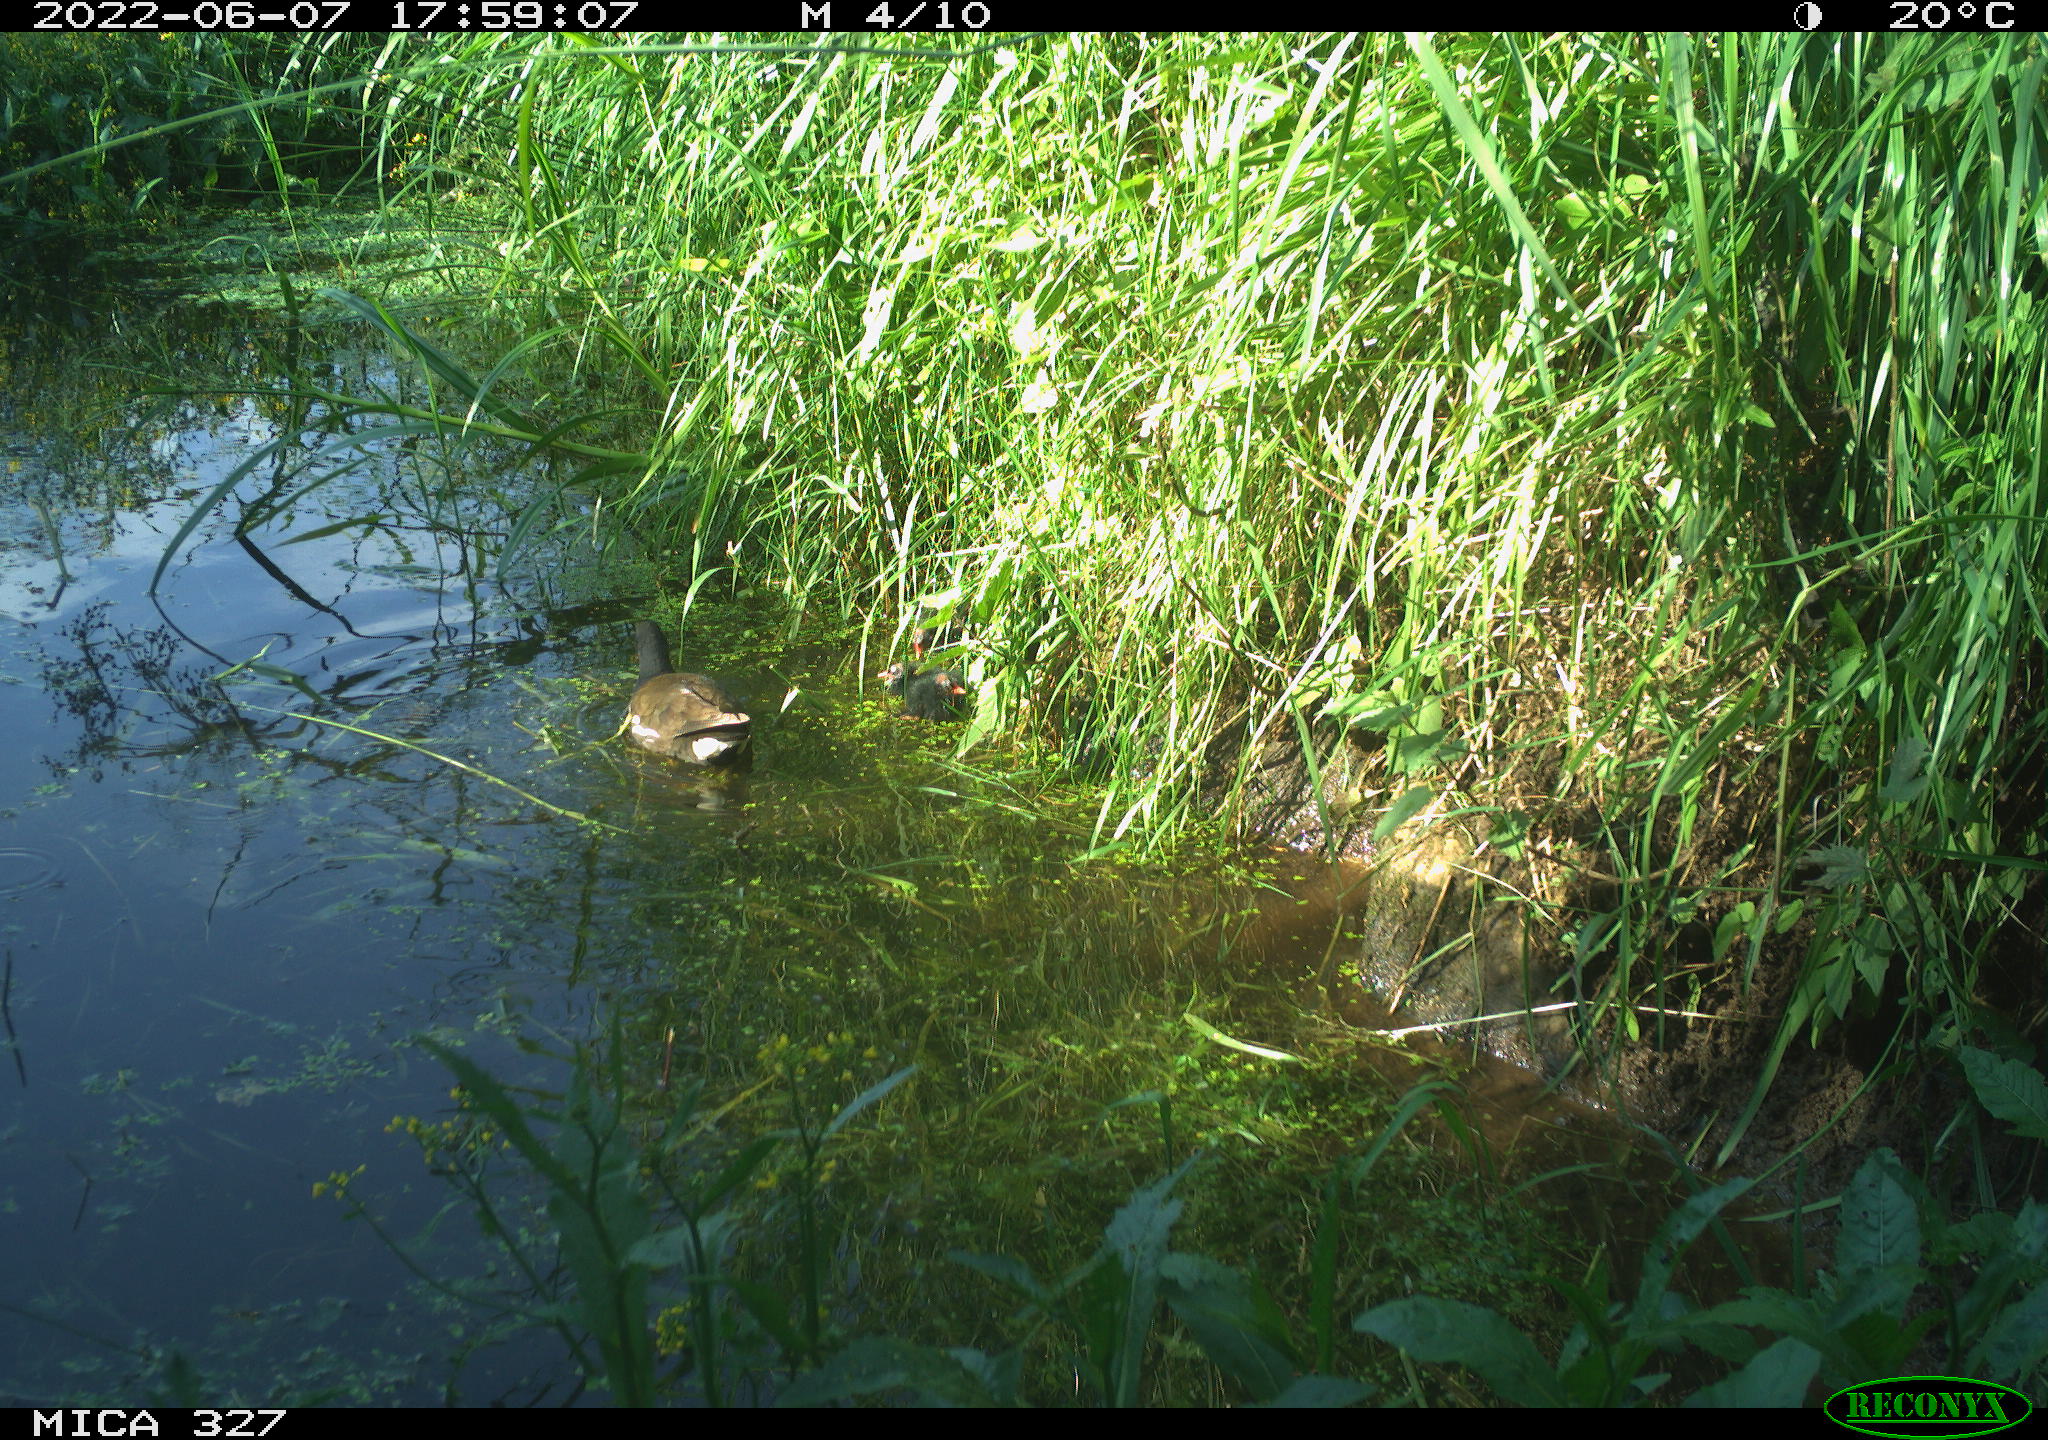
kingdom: Animalia
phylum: Chordata
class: Aves
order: Gruiformes
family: Rallidae
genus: Gallinula
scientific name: Gallinula chloropus
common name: Common moorhen
